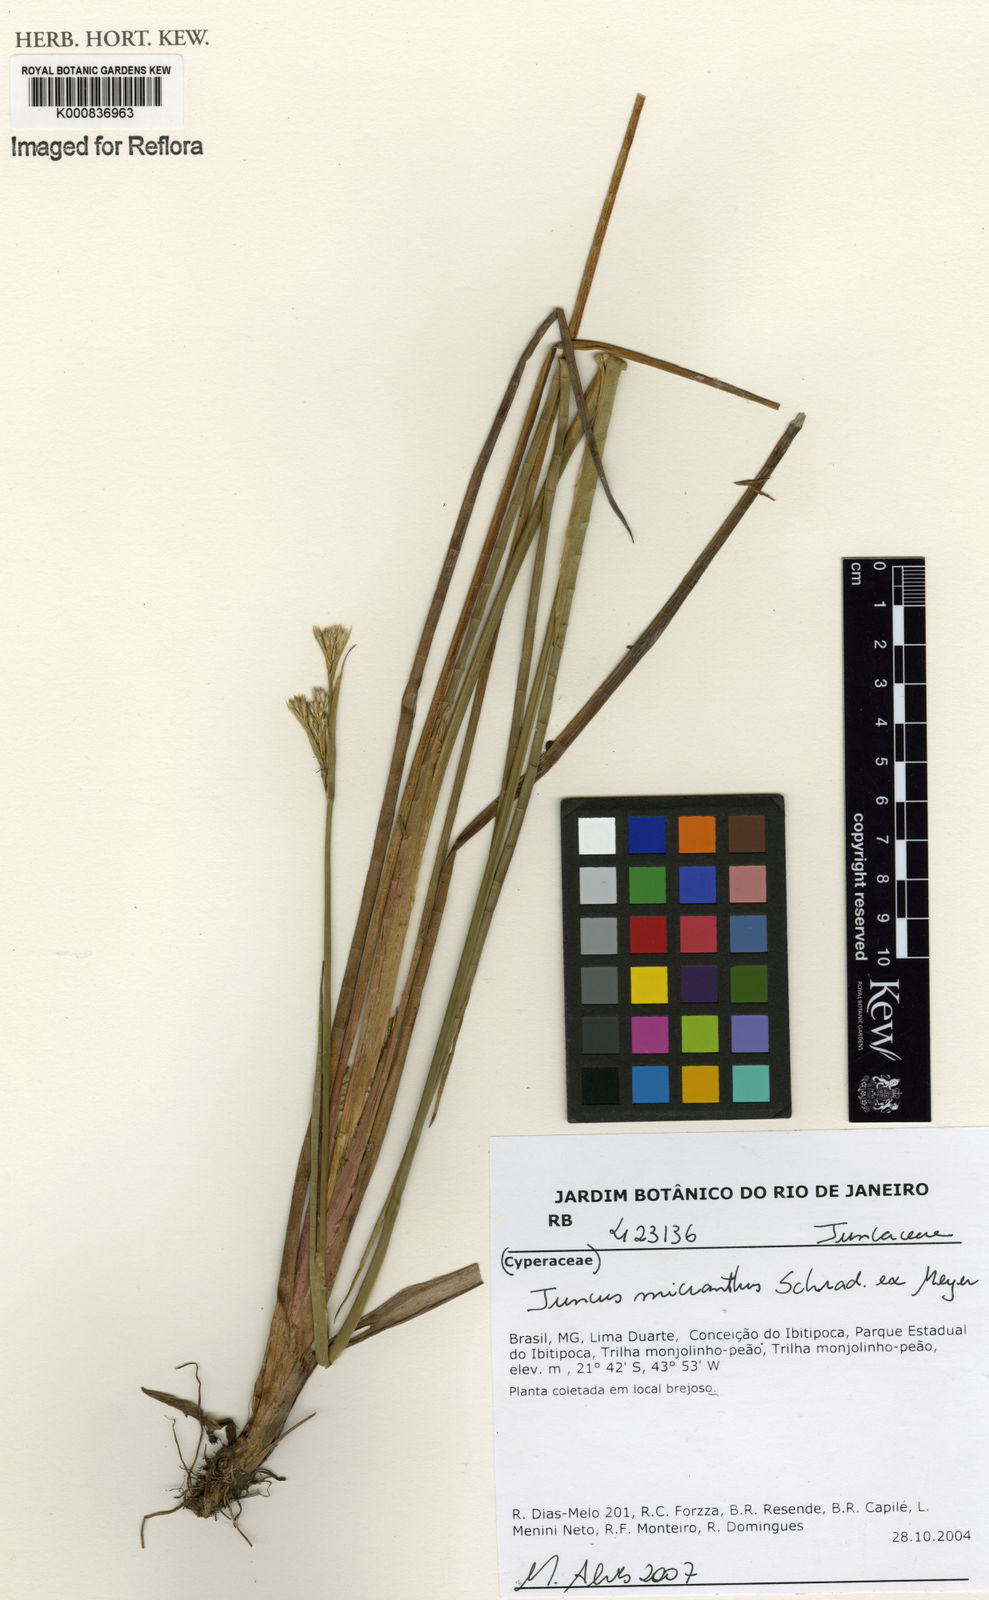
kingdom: Plantae
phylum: Tracheophyta
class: Liliopsida
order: Poales
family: Juncaceae
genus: Juncus
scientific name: Juncus
